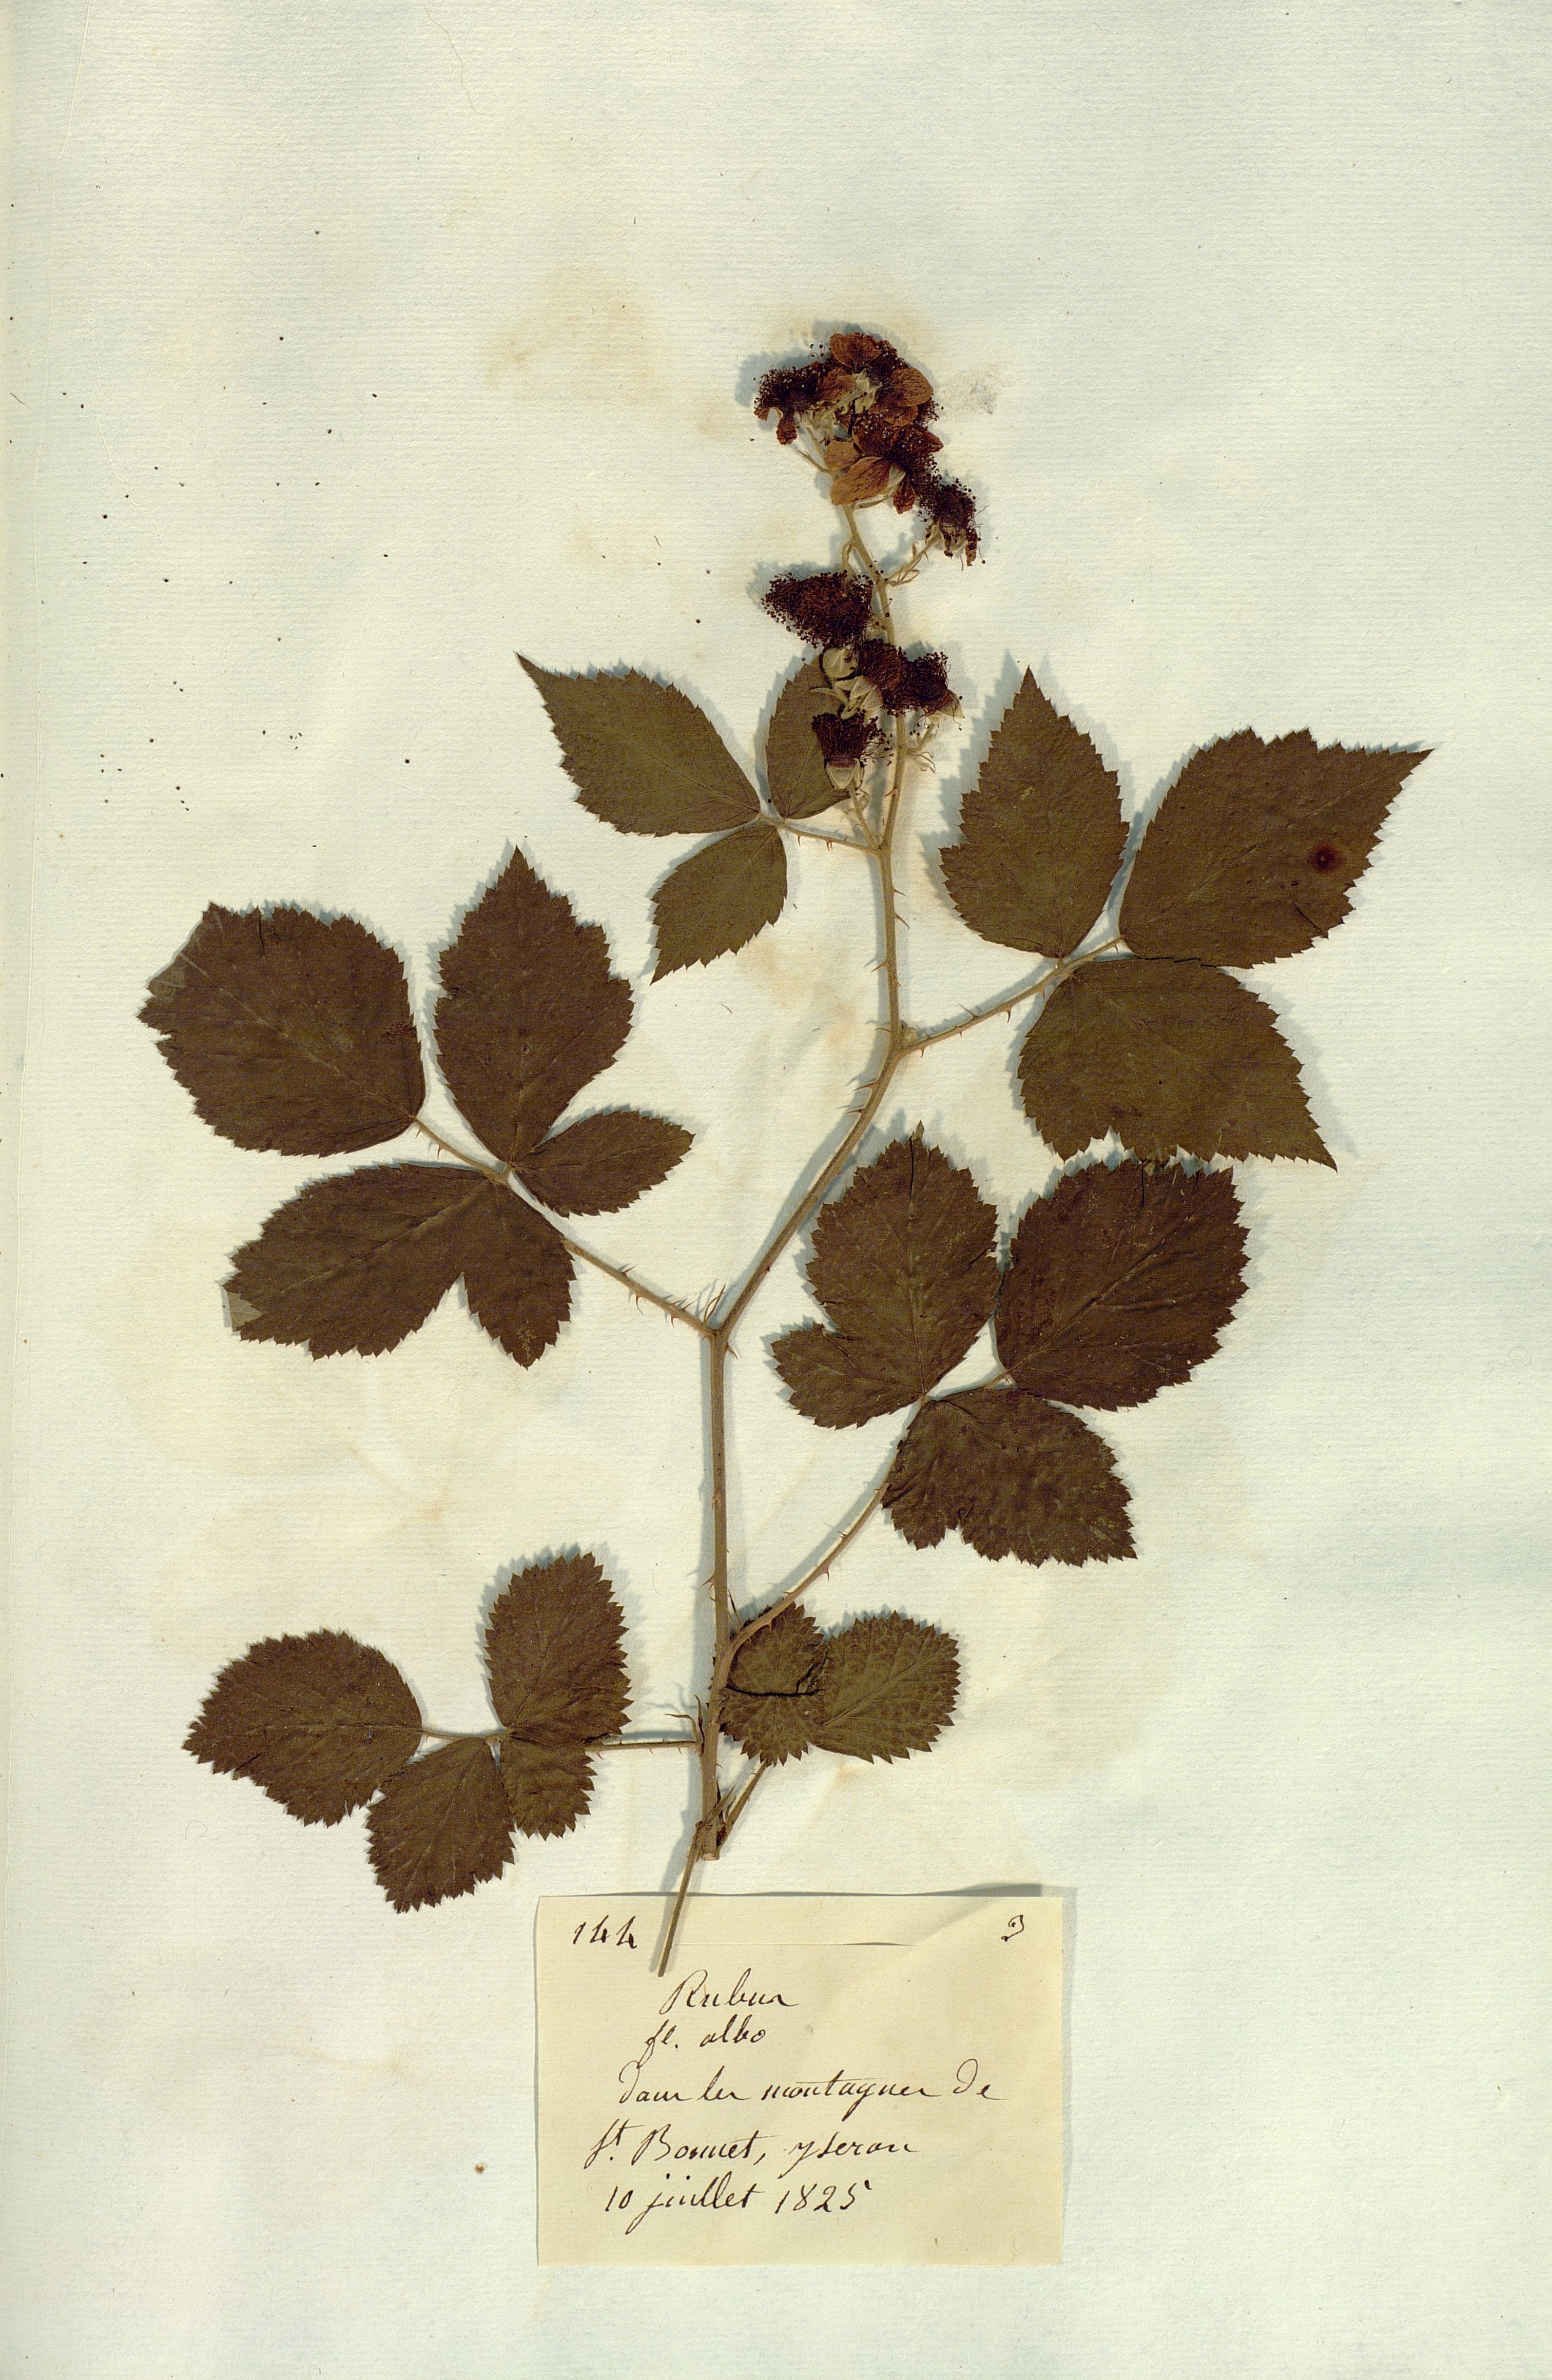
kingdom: Plantae
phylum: Tracheophyta
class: Magnoliopsida
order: Rosales
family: Rosaceae
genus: Rubus
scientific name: Rubus
